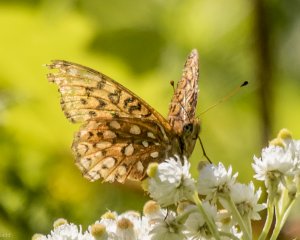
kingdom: Animalia
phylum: Arthropoda
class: Insecta
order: Lepidoptera
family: Nymphalidae
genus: Speyeria
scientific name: Speyeria atlantis
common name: Atlantis Fritillary
